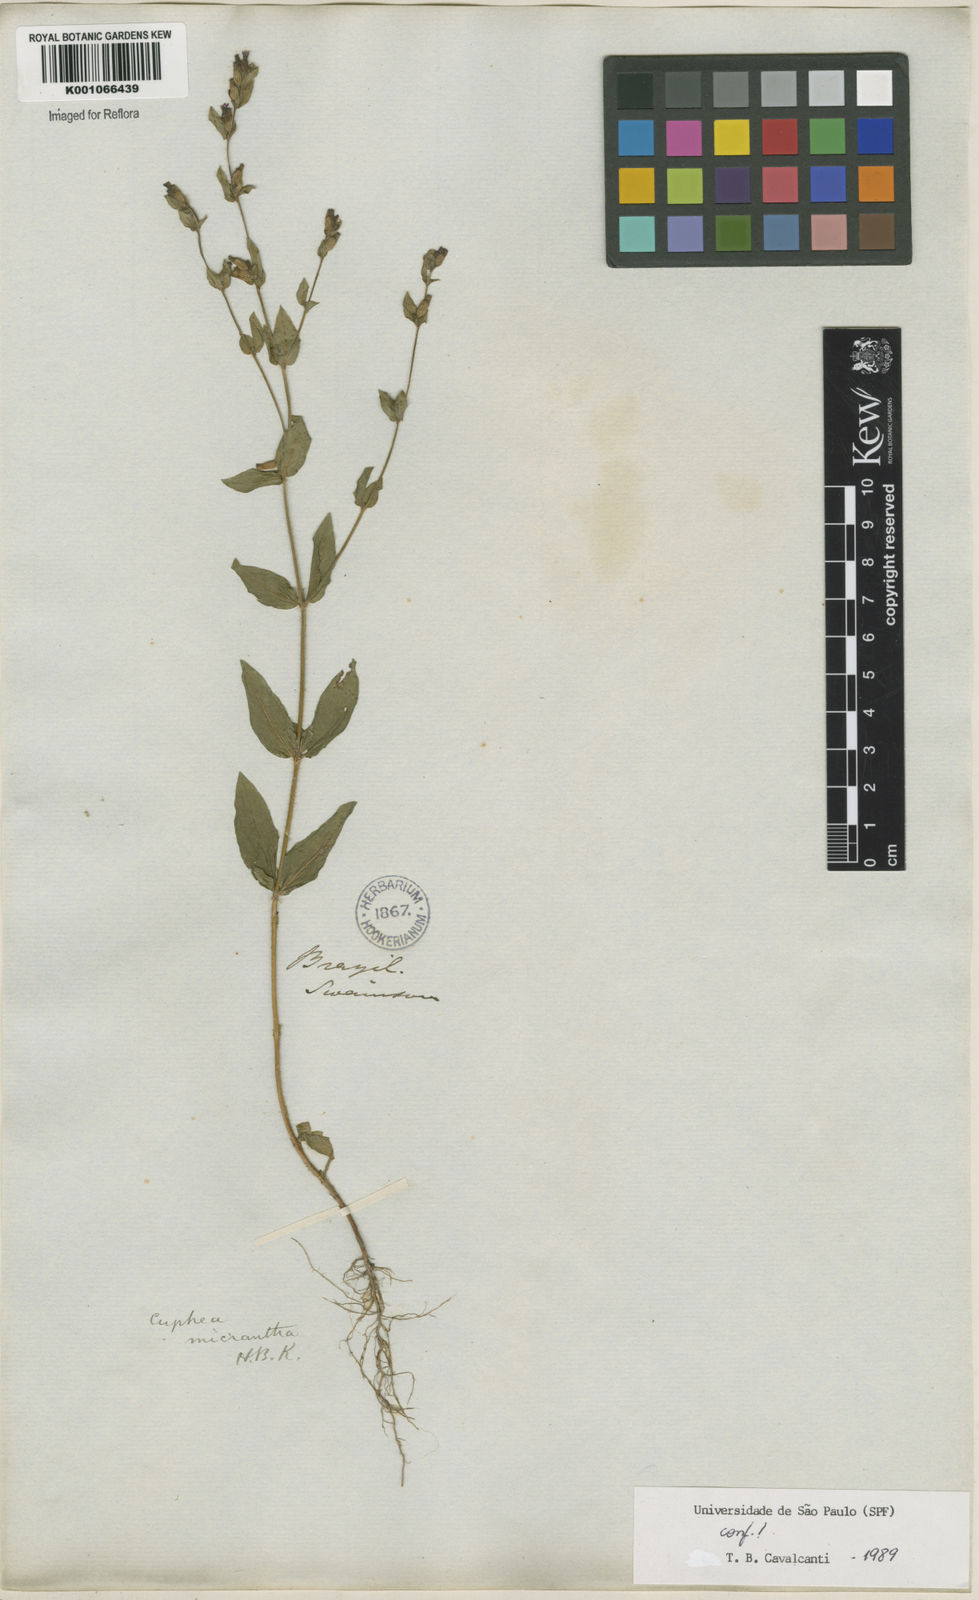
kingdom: Plantae
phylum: Tracheophyta
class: Magnoliopsida
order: Myrtales
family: Lythraceae
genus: Cuphea
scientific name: Cuphea micrantha
